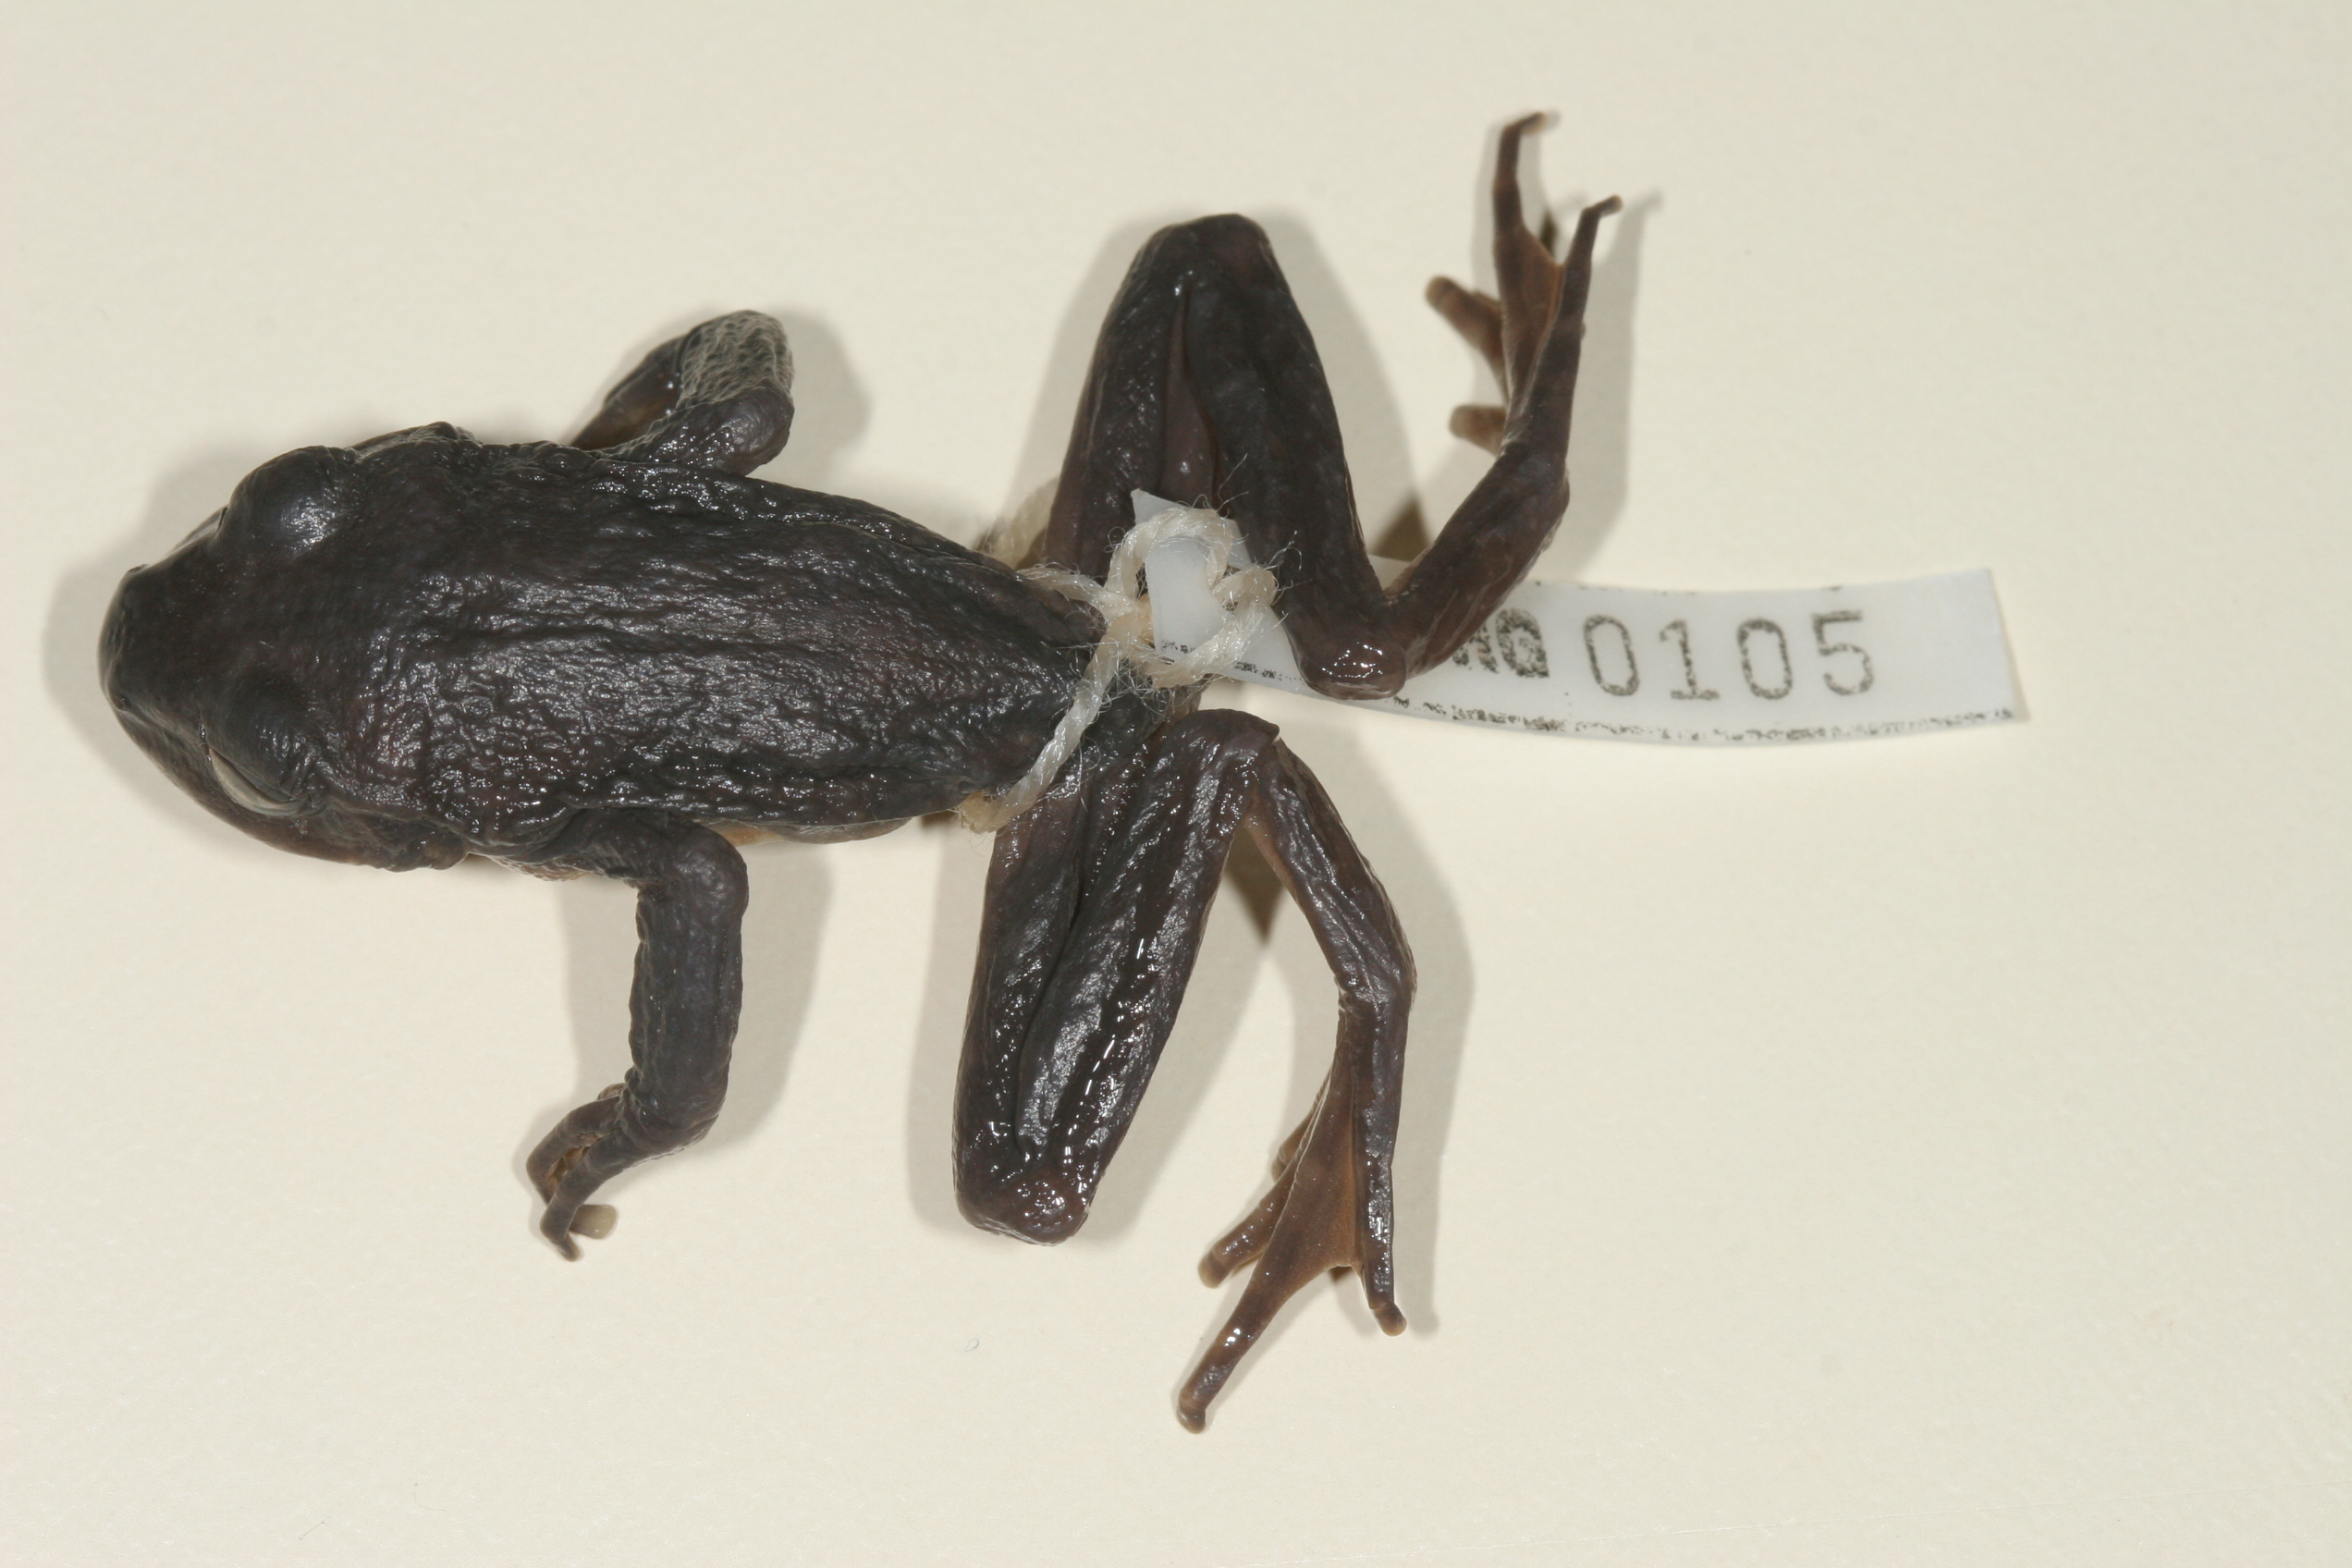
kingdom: Animalia
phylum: Chordata
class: Amphibia
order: Anura
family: Heleophrynidae
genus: Hadromophryne
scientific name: Hadromophryne natalensis
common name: Natal ghost frog
